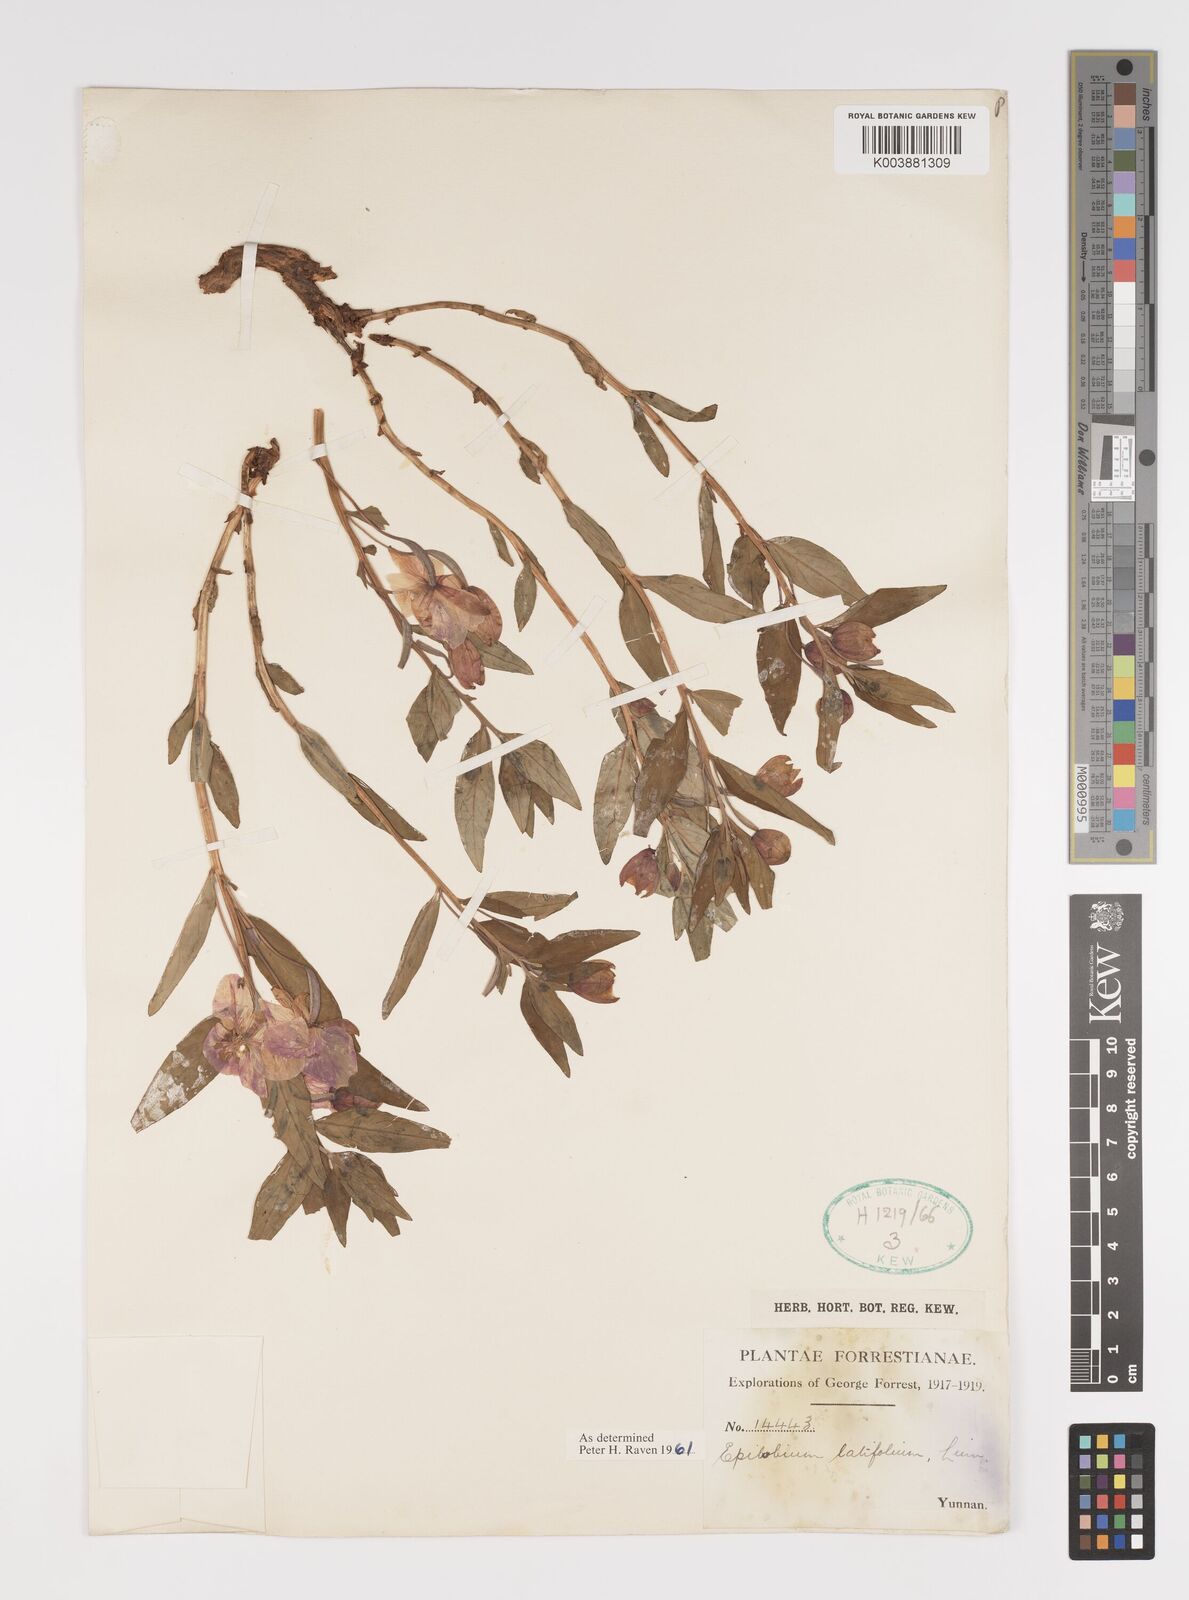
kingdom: Plantae
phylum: Tracheophyta
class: Magnoliopsida
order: Myrtales
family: Onagraceae
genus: Chamaenerion
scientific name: Chamaenerion latifolium
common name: Dwarf fireweed
